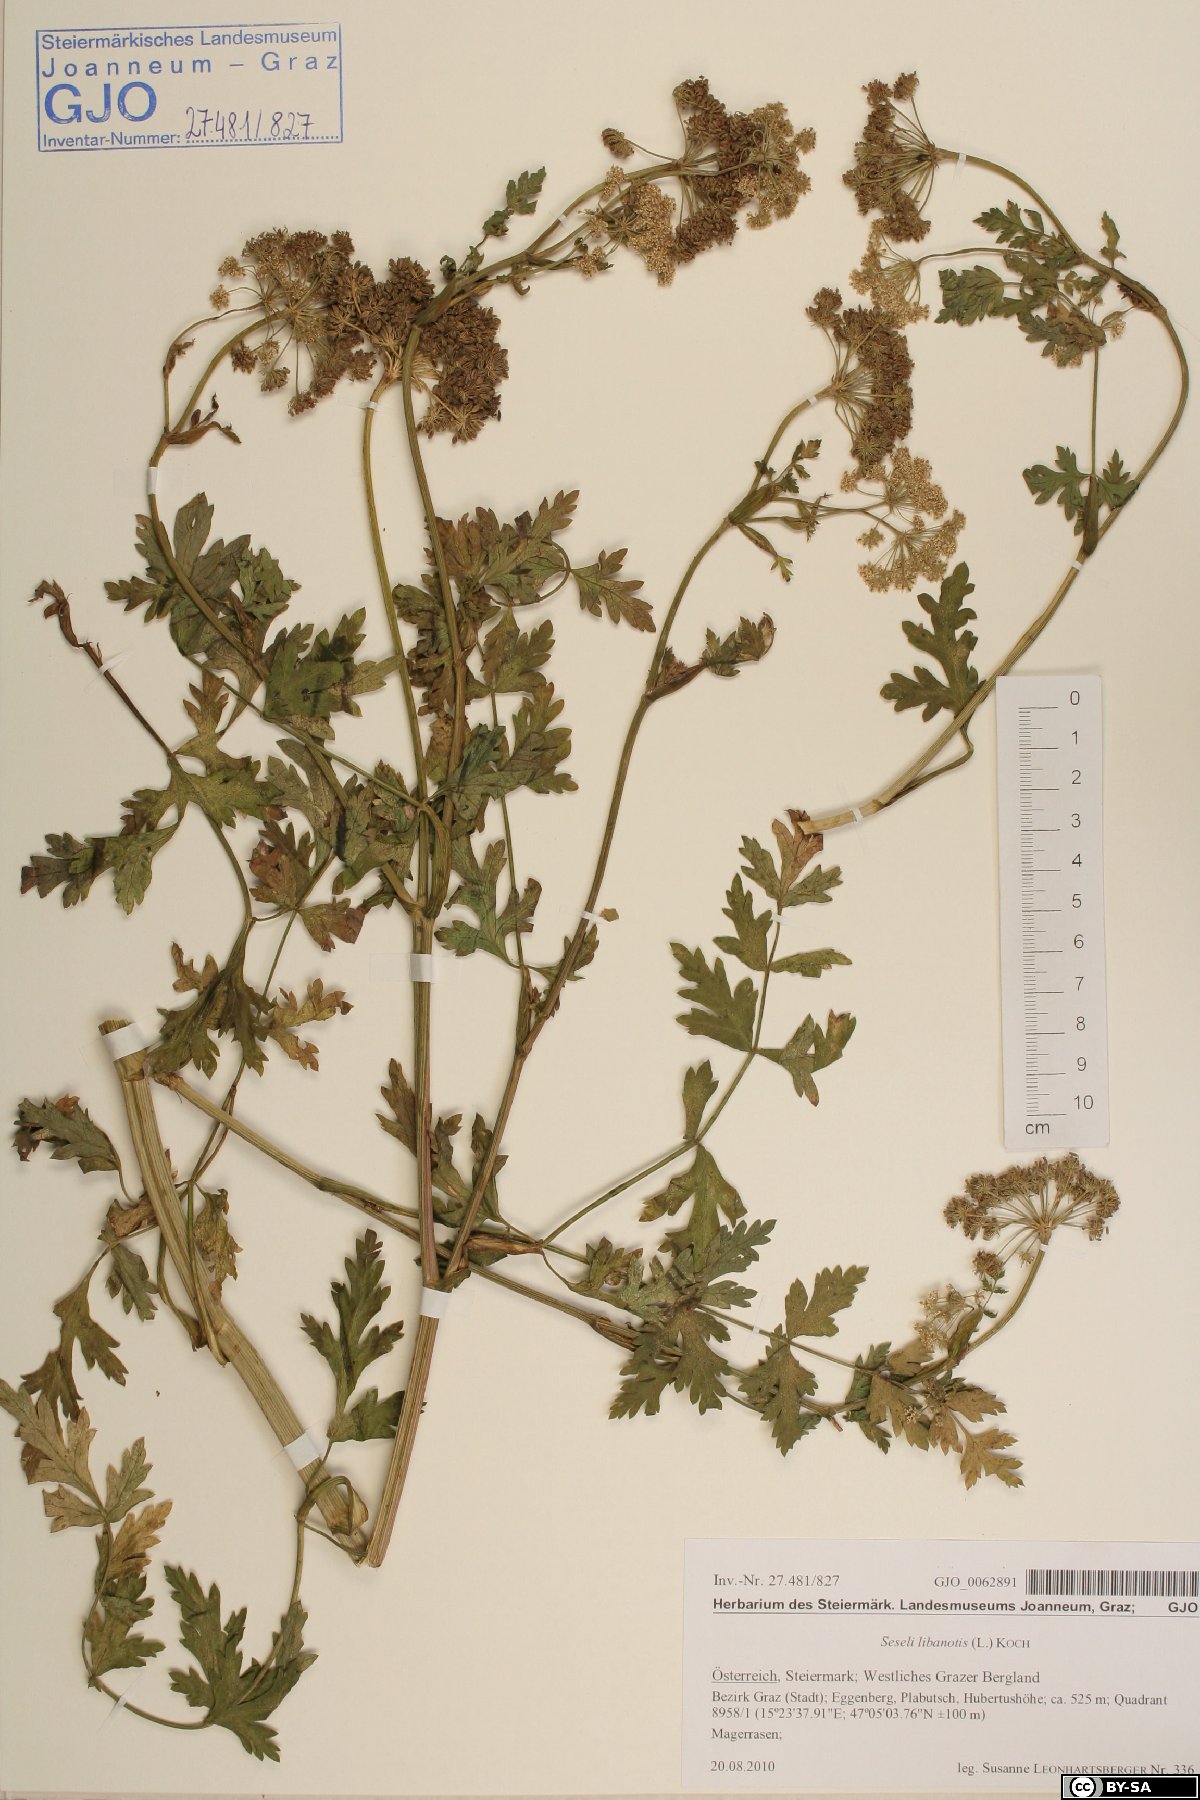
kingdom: Plantae
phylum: Tracheophyta
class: Magnoliopsida
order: Apiales
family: Apiaceae
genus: Seseli
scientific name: Seseli libanotis
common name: Mooncarrot
